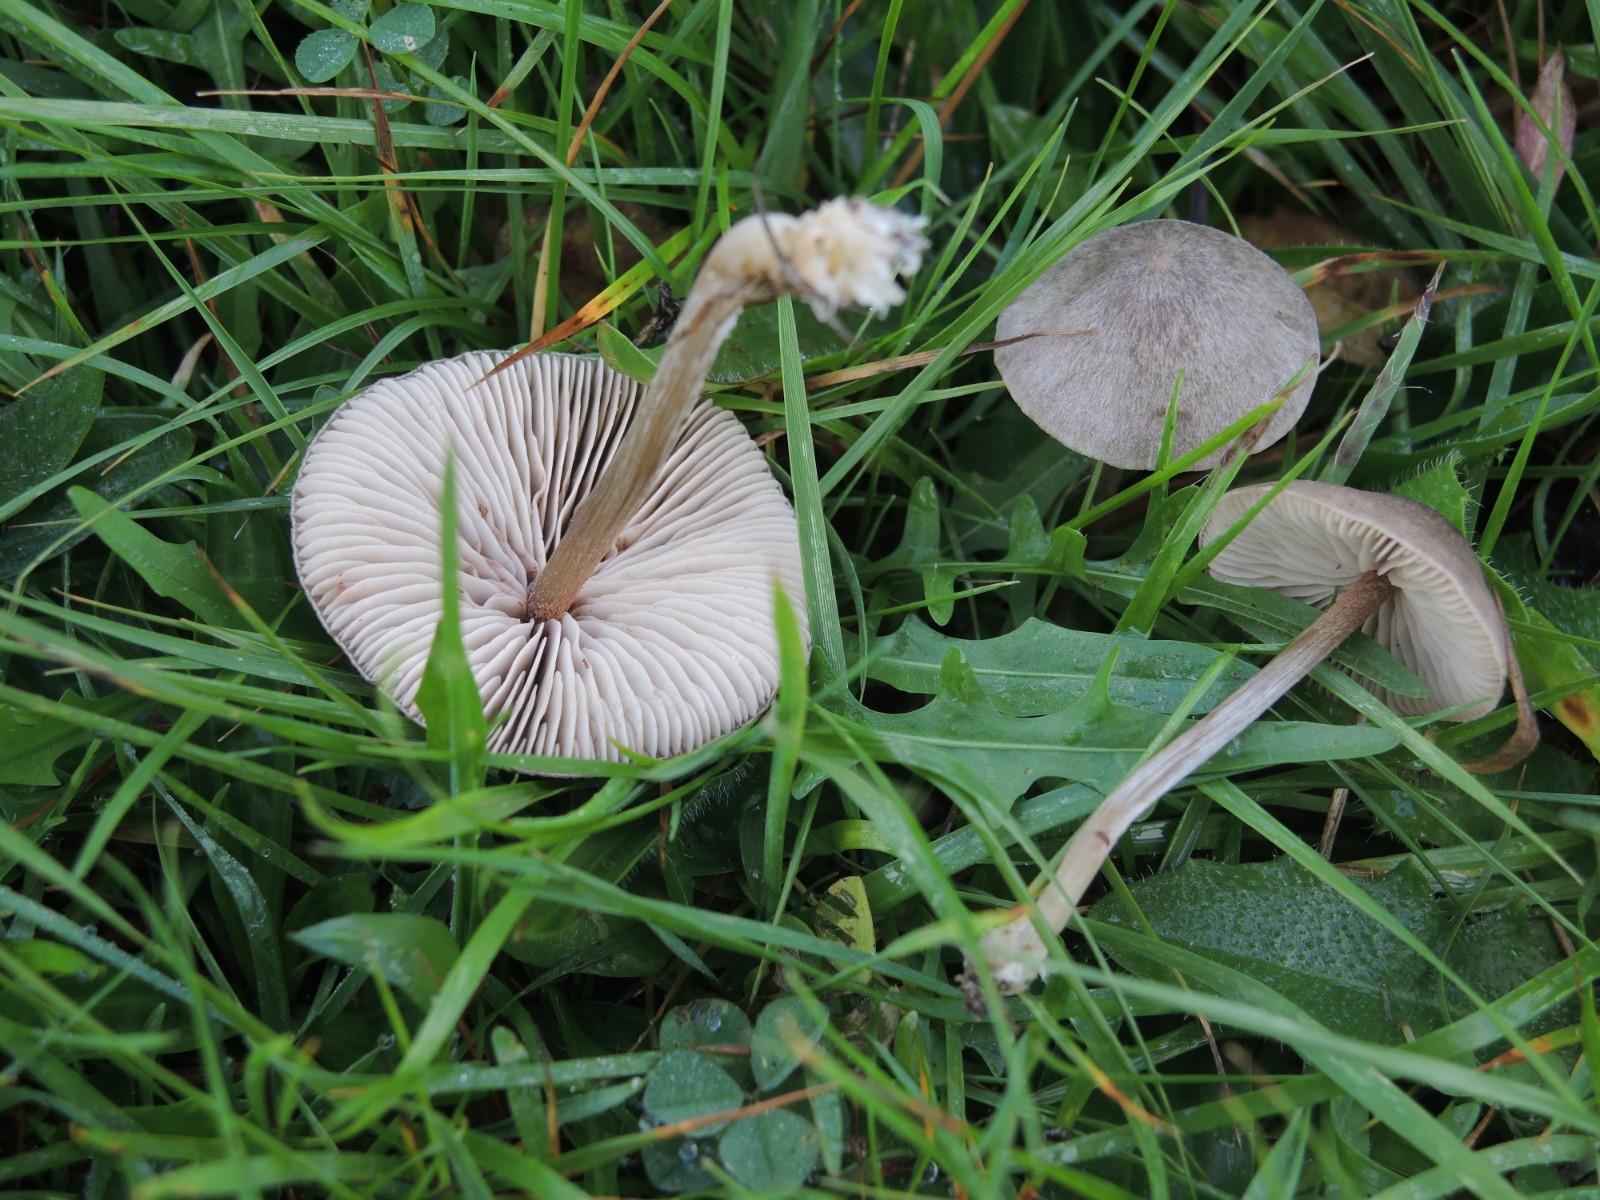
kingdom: Fungi
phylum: Basidiomycota
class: Agaricomycetes
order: Agaricales
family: Entolomataceae
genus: Entoloma
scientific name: Entoloma ortonii
